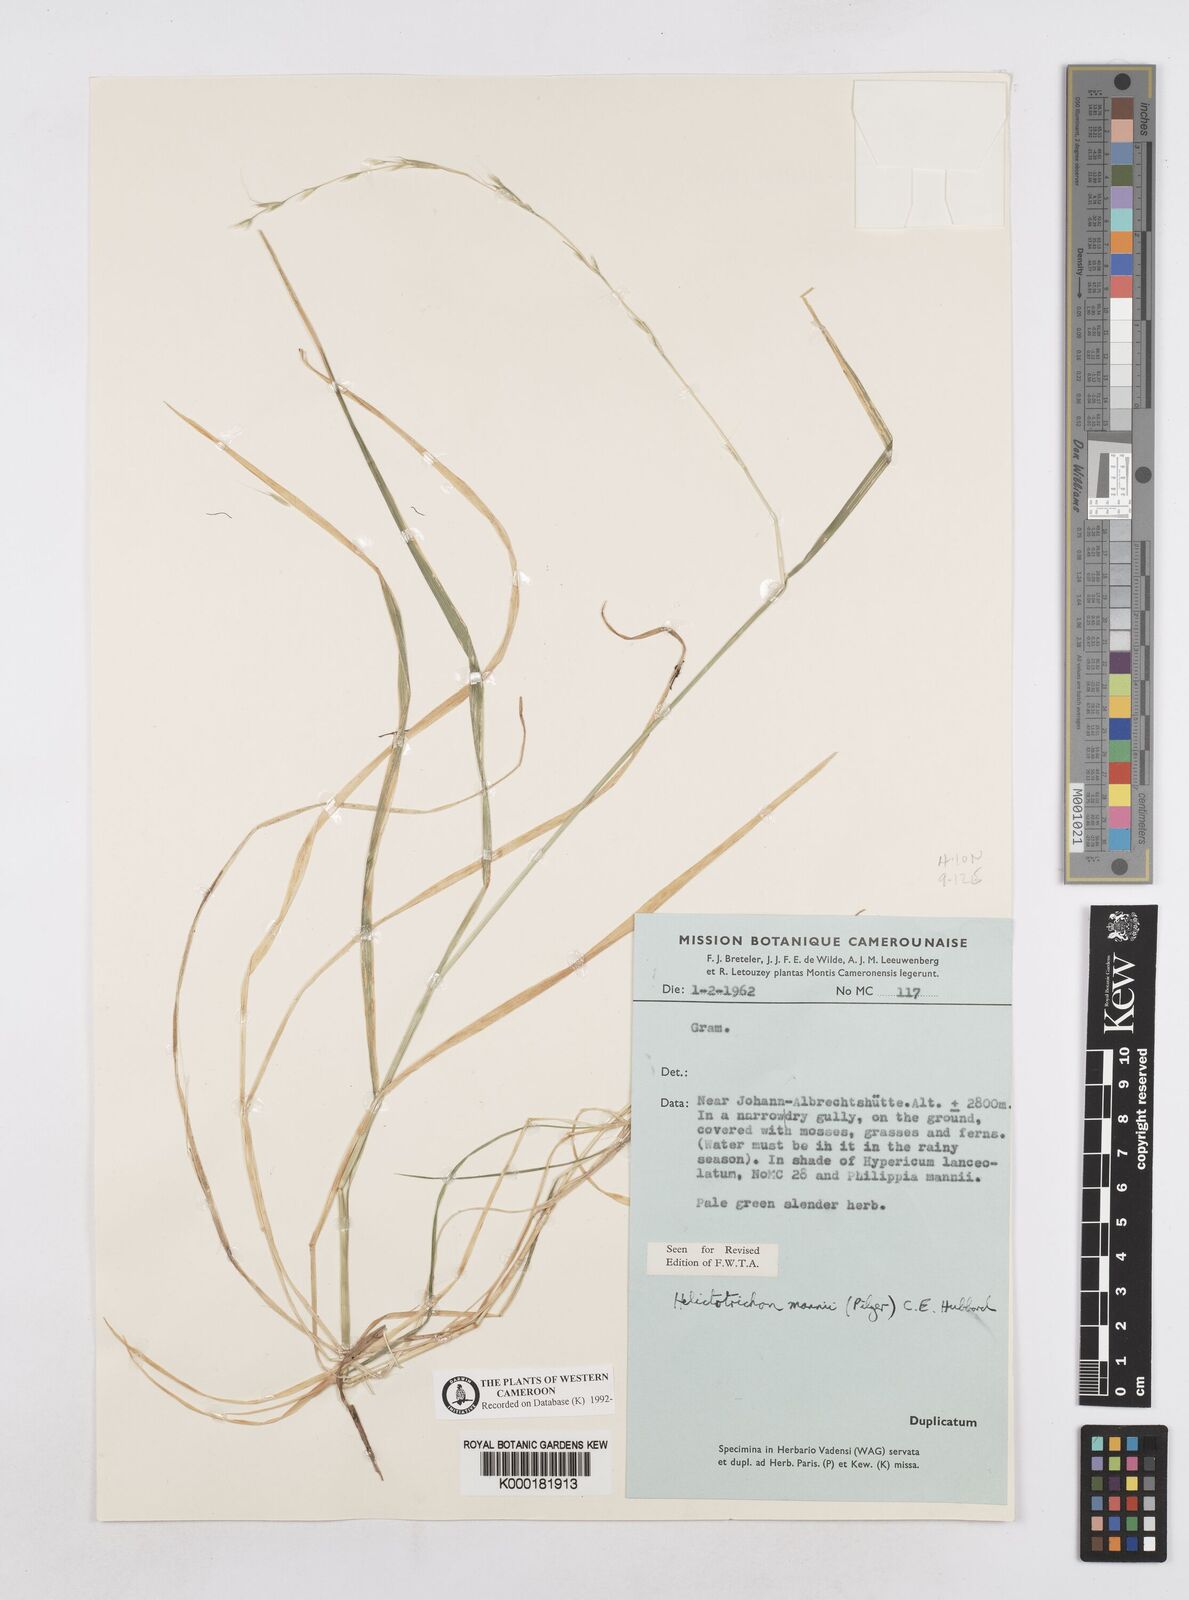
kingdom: Plantae
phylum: Tracheophyta
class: Liliopsida
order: Poales
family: Poaceae
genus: Trisetopsis
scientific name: Trisetopsis mannii
